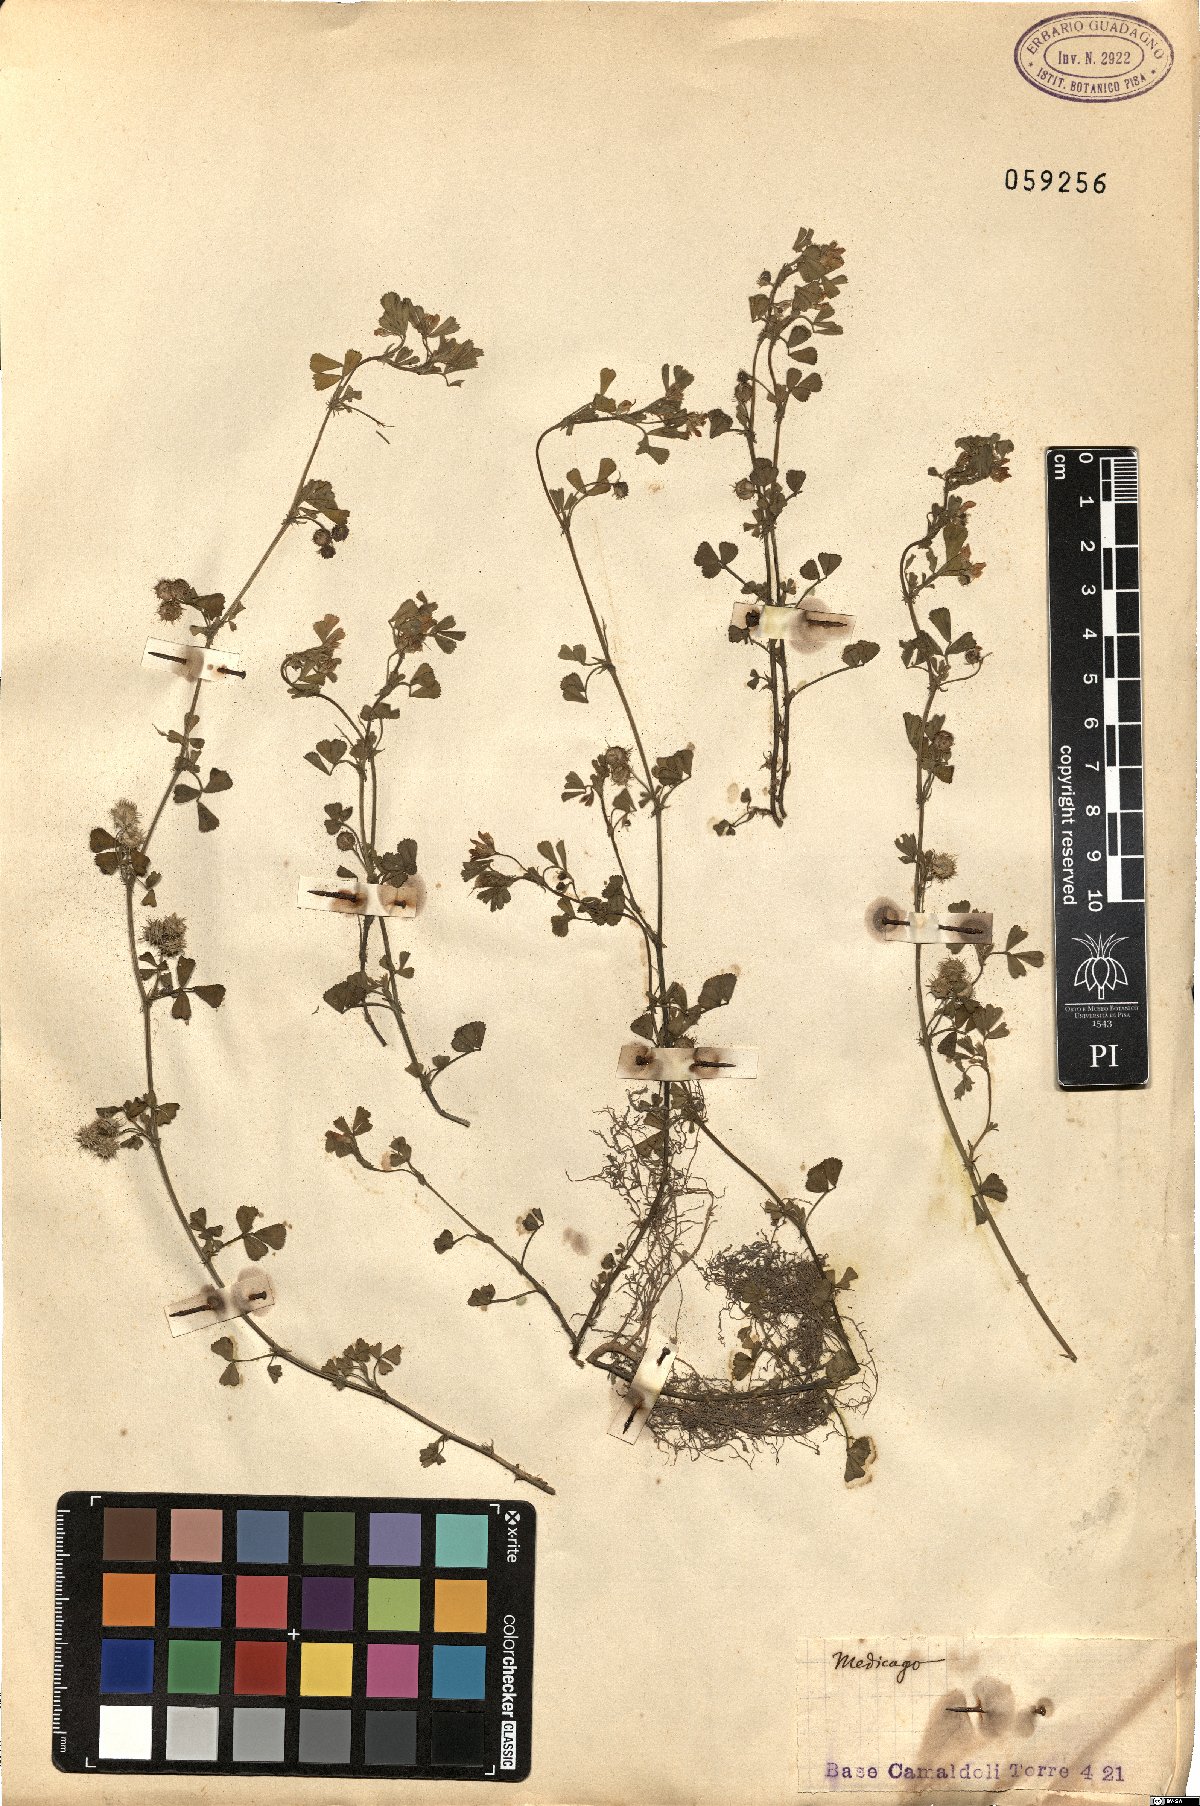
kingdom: Plantae
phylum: Tracheophyta
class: Magnoliopsida
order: Fabales
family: Fabaceae
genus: Medicago
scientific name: Medicago
